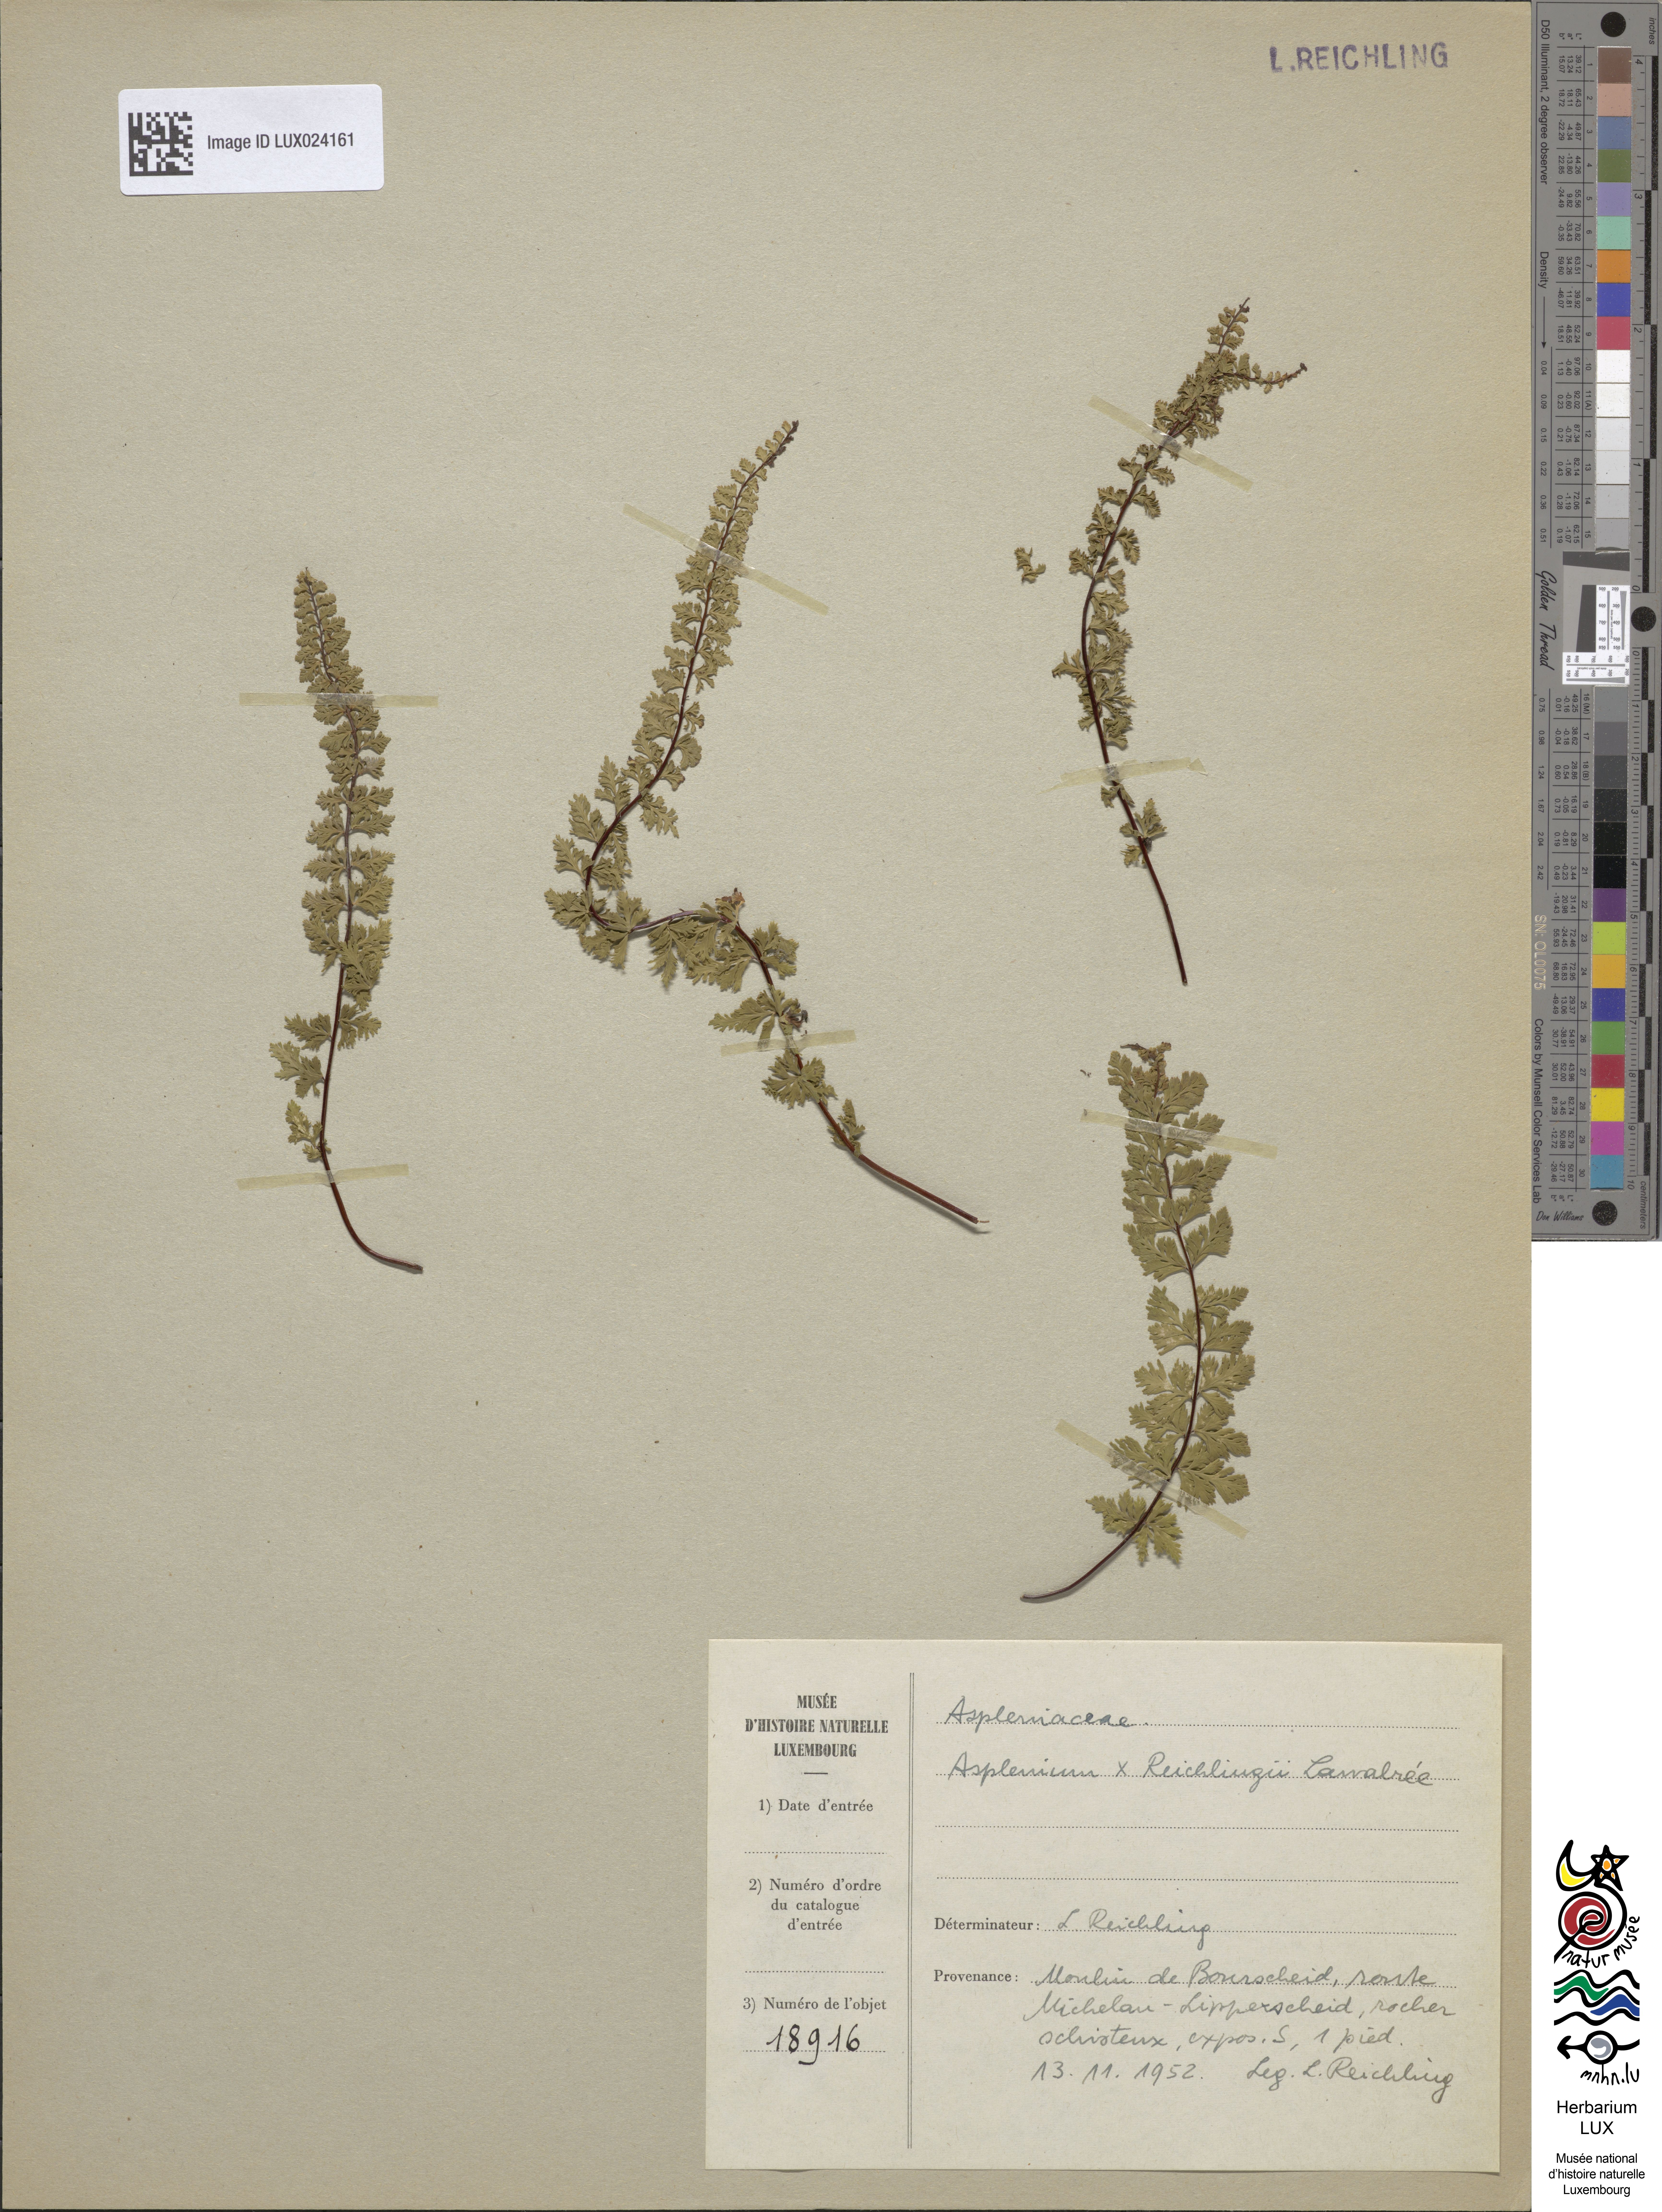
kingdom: Plantae
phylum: Tracheophyta
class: Polypodiopsida
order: Polypodiales
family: Aspleniaceae
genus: Asplenium
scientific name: Asplenium reichlingii
